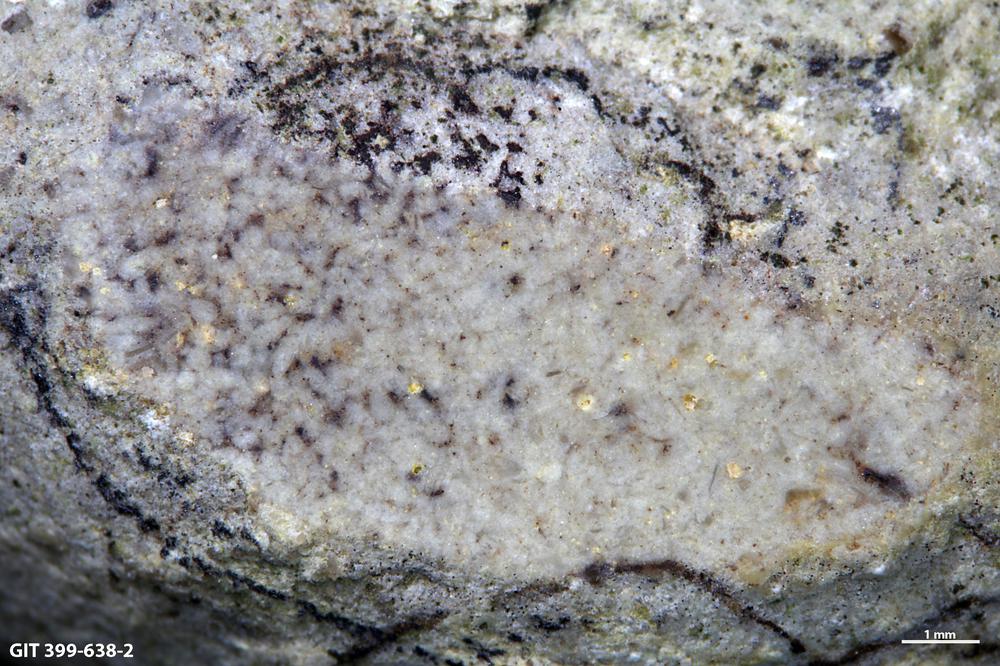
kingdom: Animalia
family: Coprulidae
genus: Coprulus
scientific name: Coprulus
